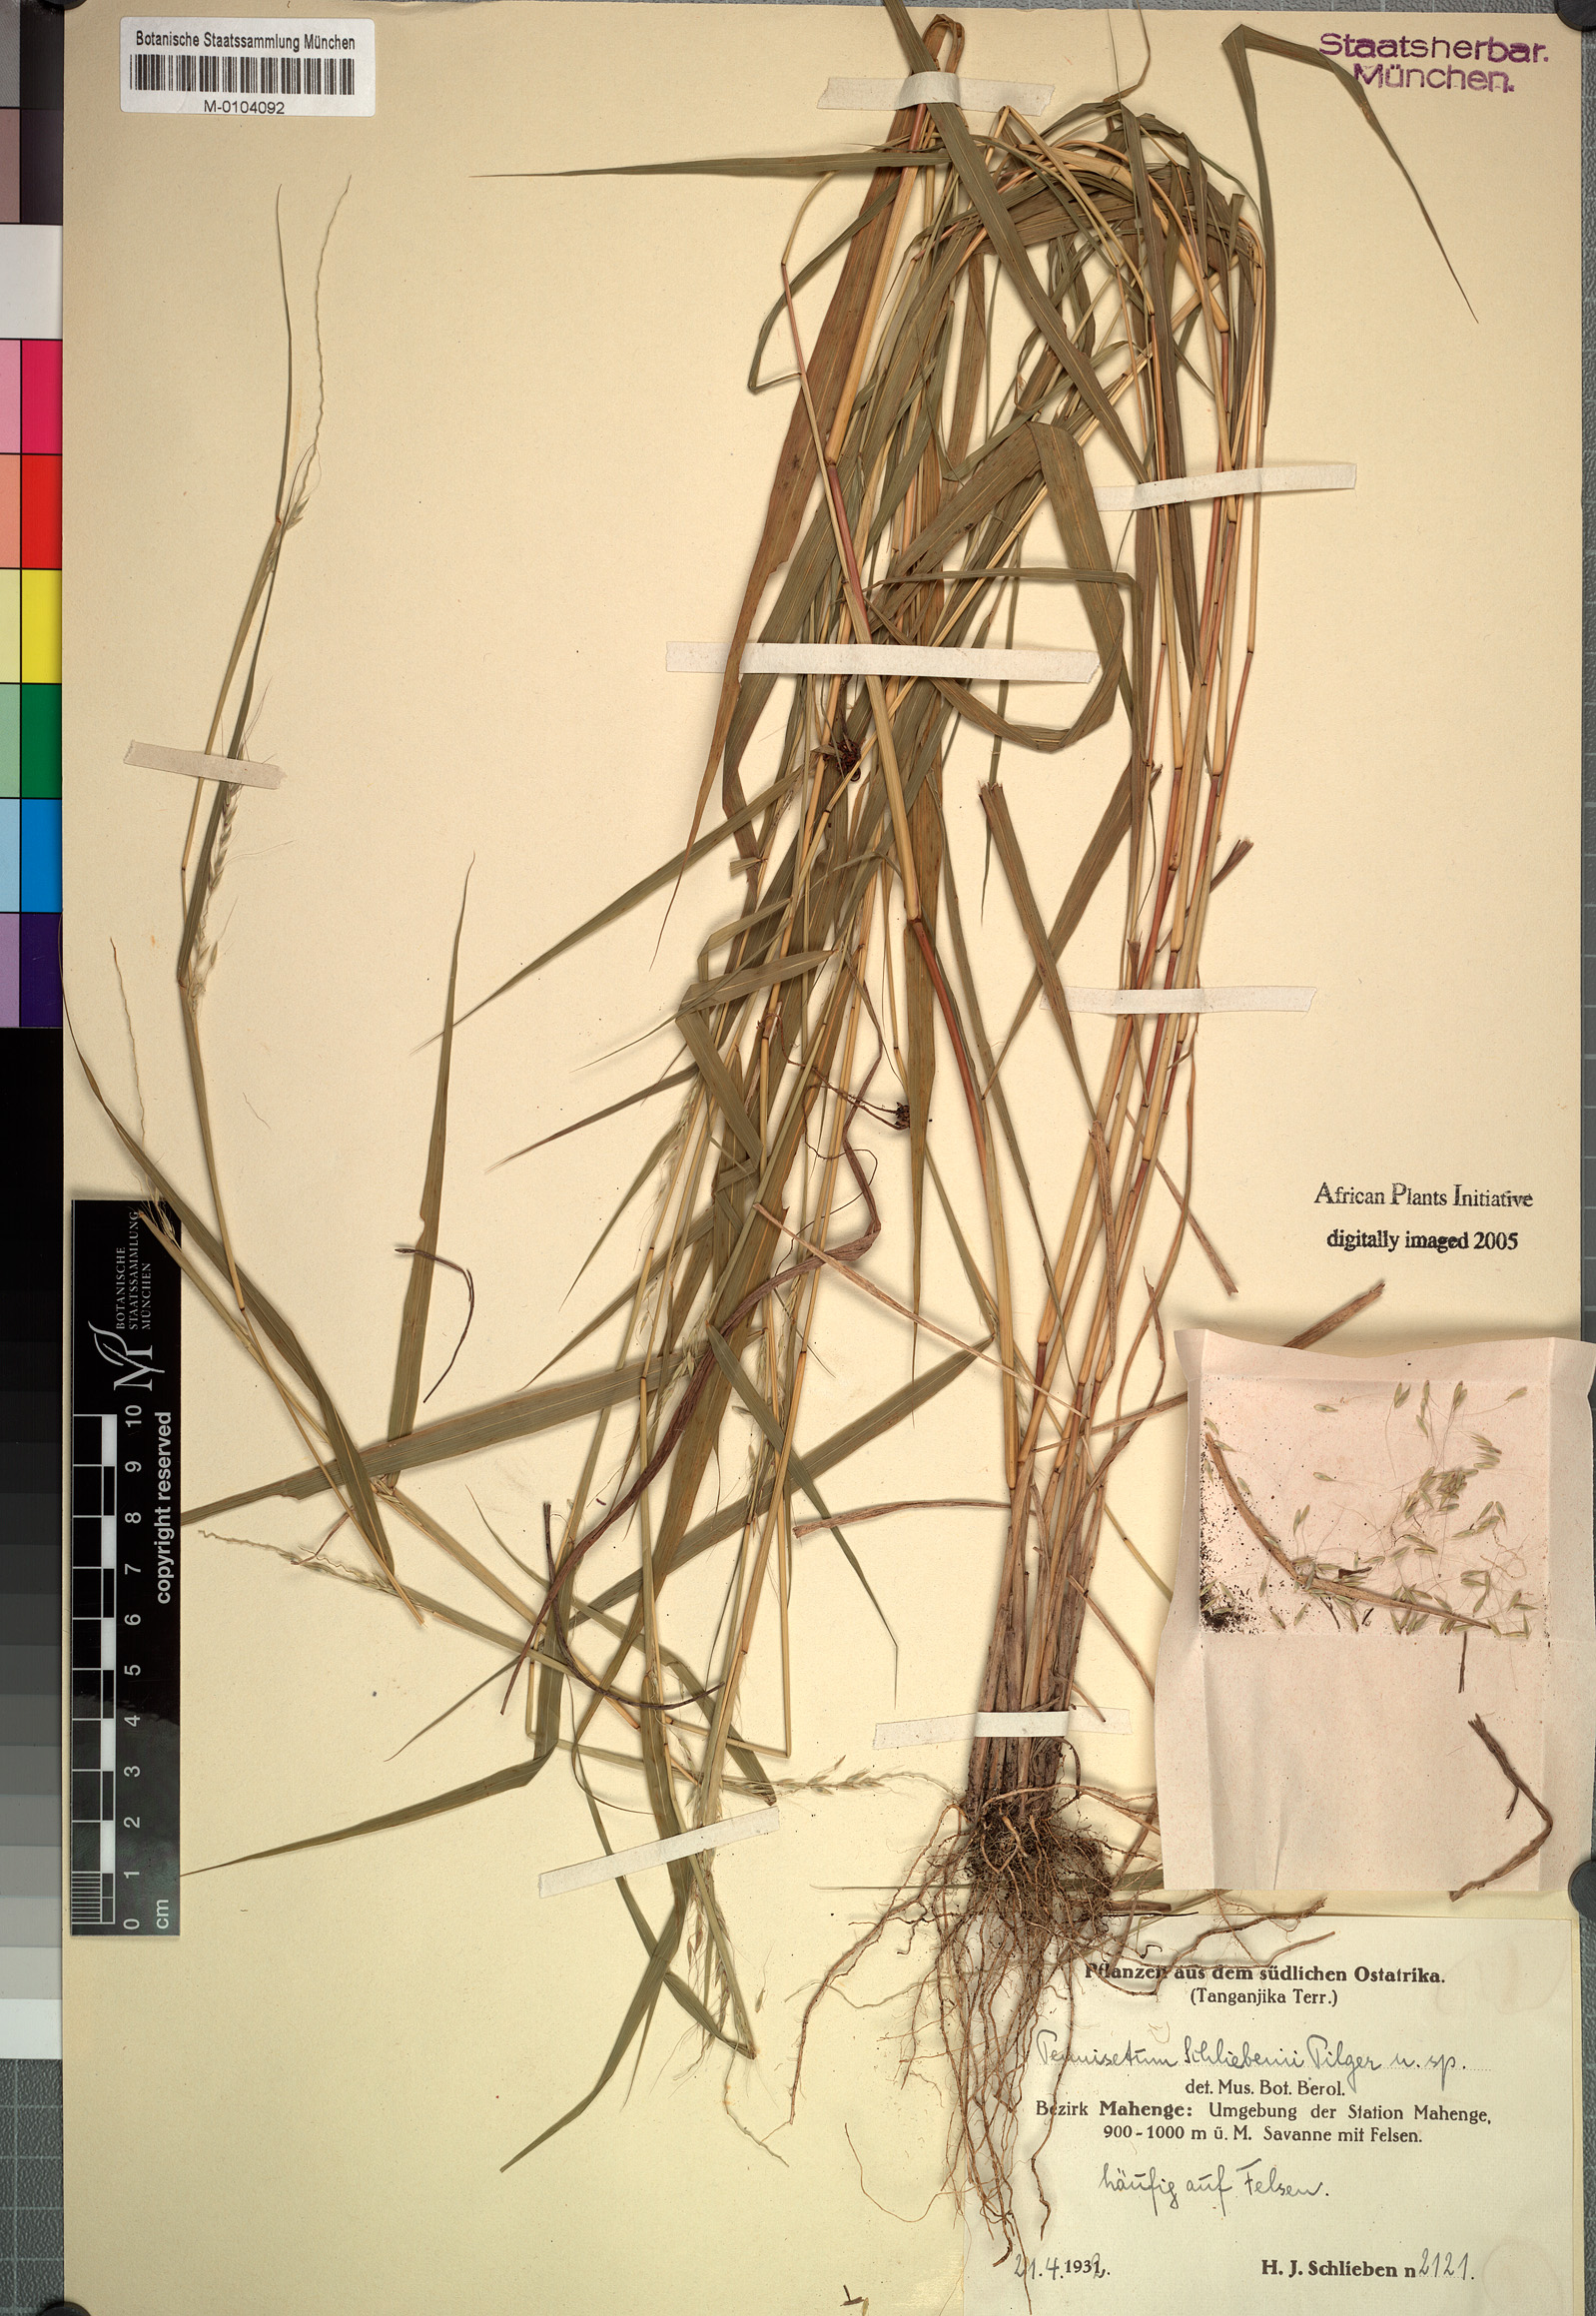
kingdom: Plantae
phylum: Tracheophyta
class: Liliopsida
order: Poales
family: Poaceae
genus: Cenchrus
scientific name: Cenchrus trisetus
